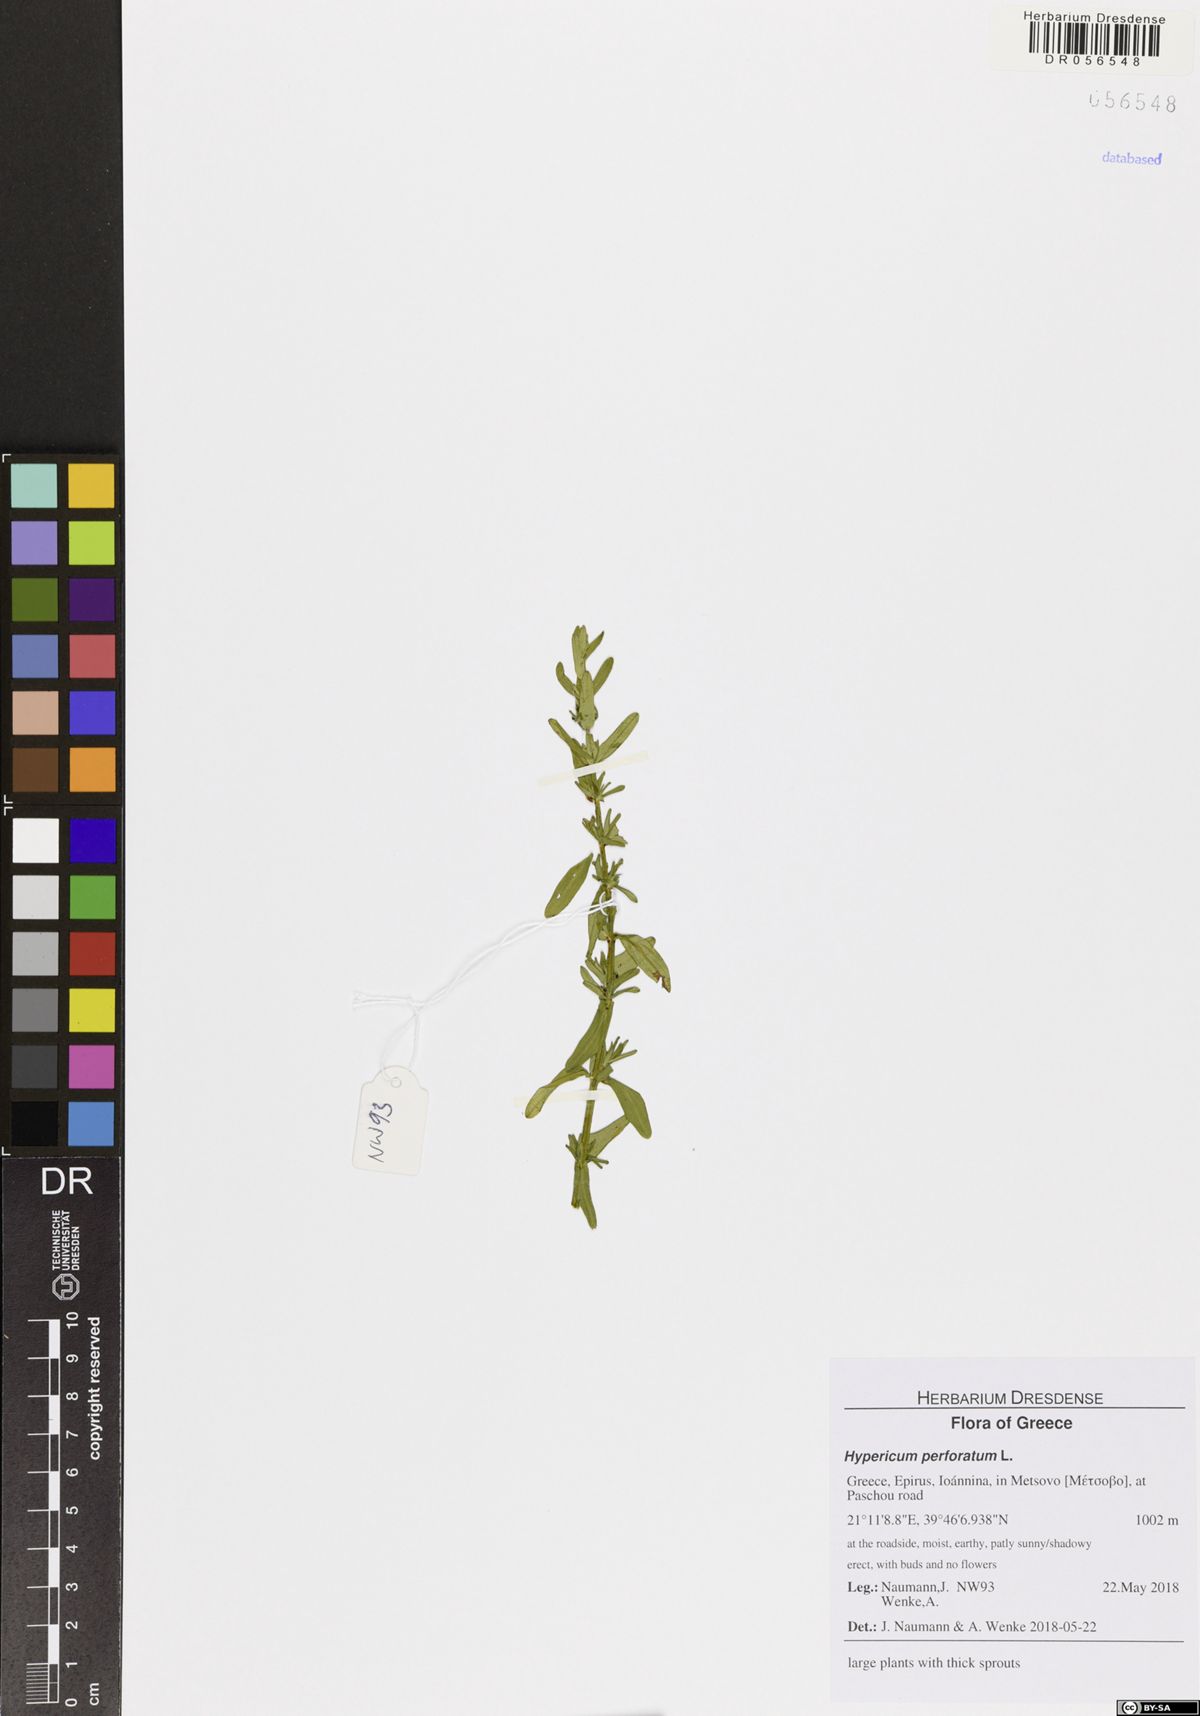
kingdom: Plantae
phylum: Tracheophyta
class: Magnoliopsida
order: Malpighiales
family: Hypericaceae
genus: Hypericum
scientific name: Hypericum perforatum
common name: Common st. johnswort
